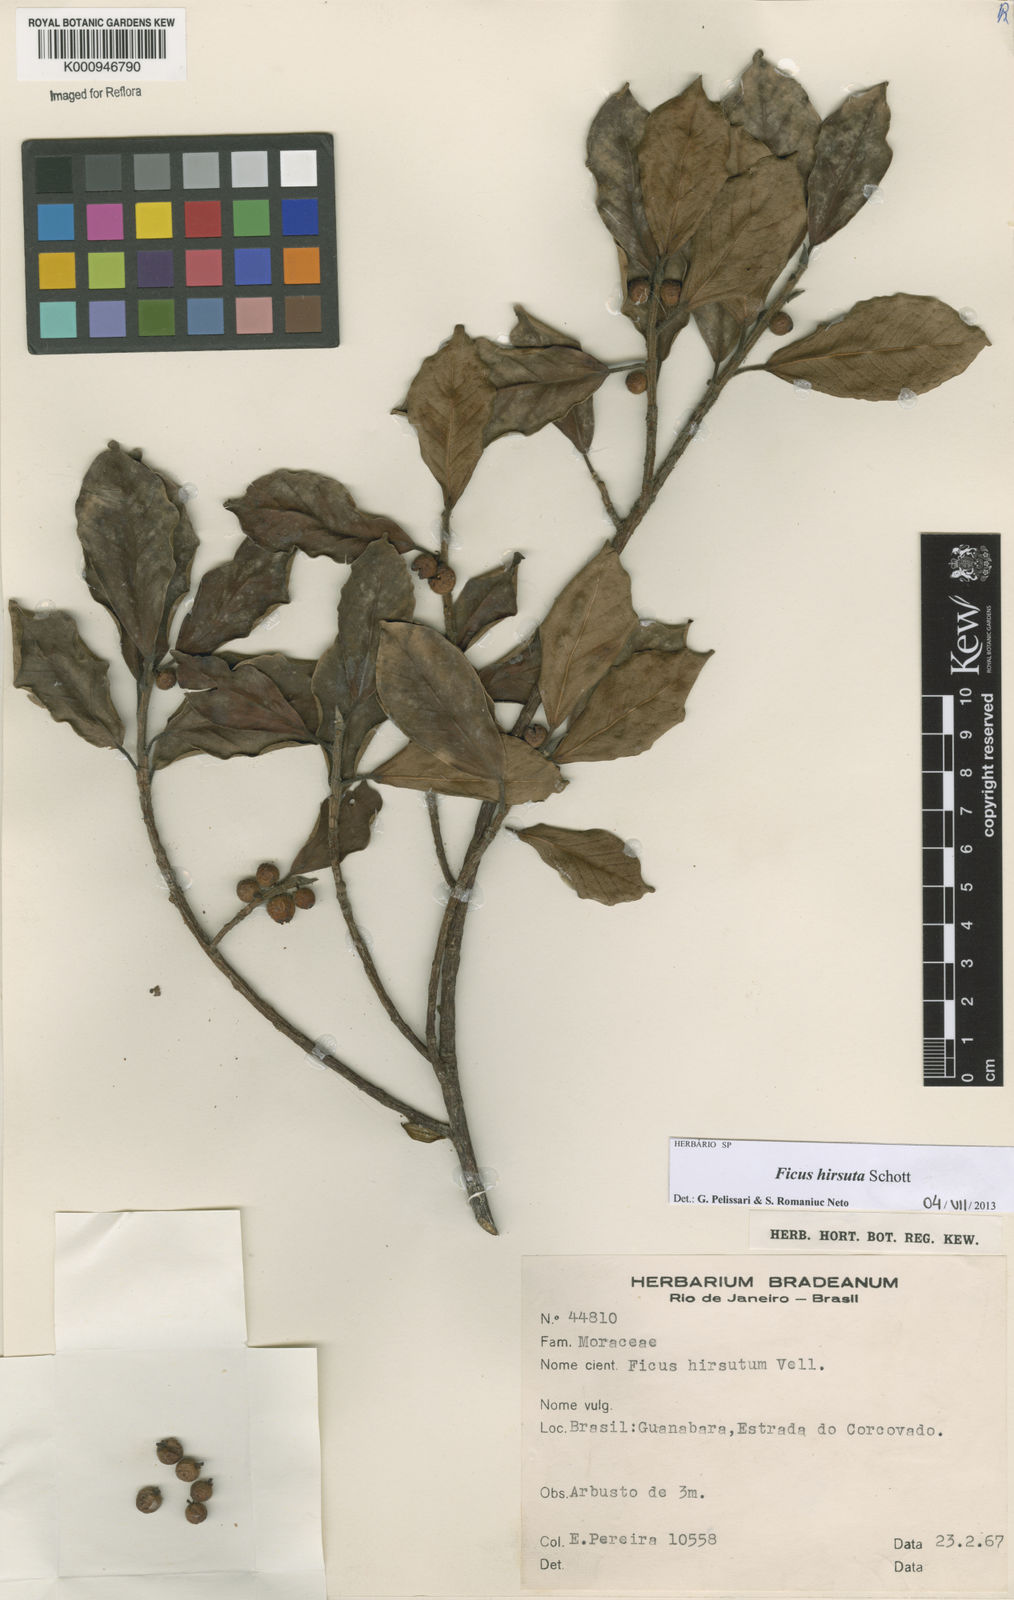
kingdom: Plantae
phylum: Tracheophyta
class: Magnoliopsida
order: Rosales
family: Moraceae
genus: Ficus
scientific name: Ficus hirsuta
